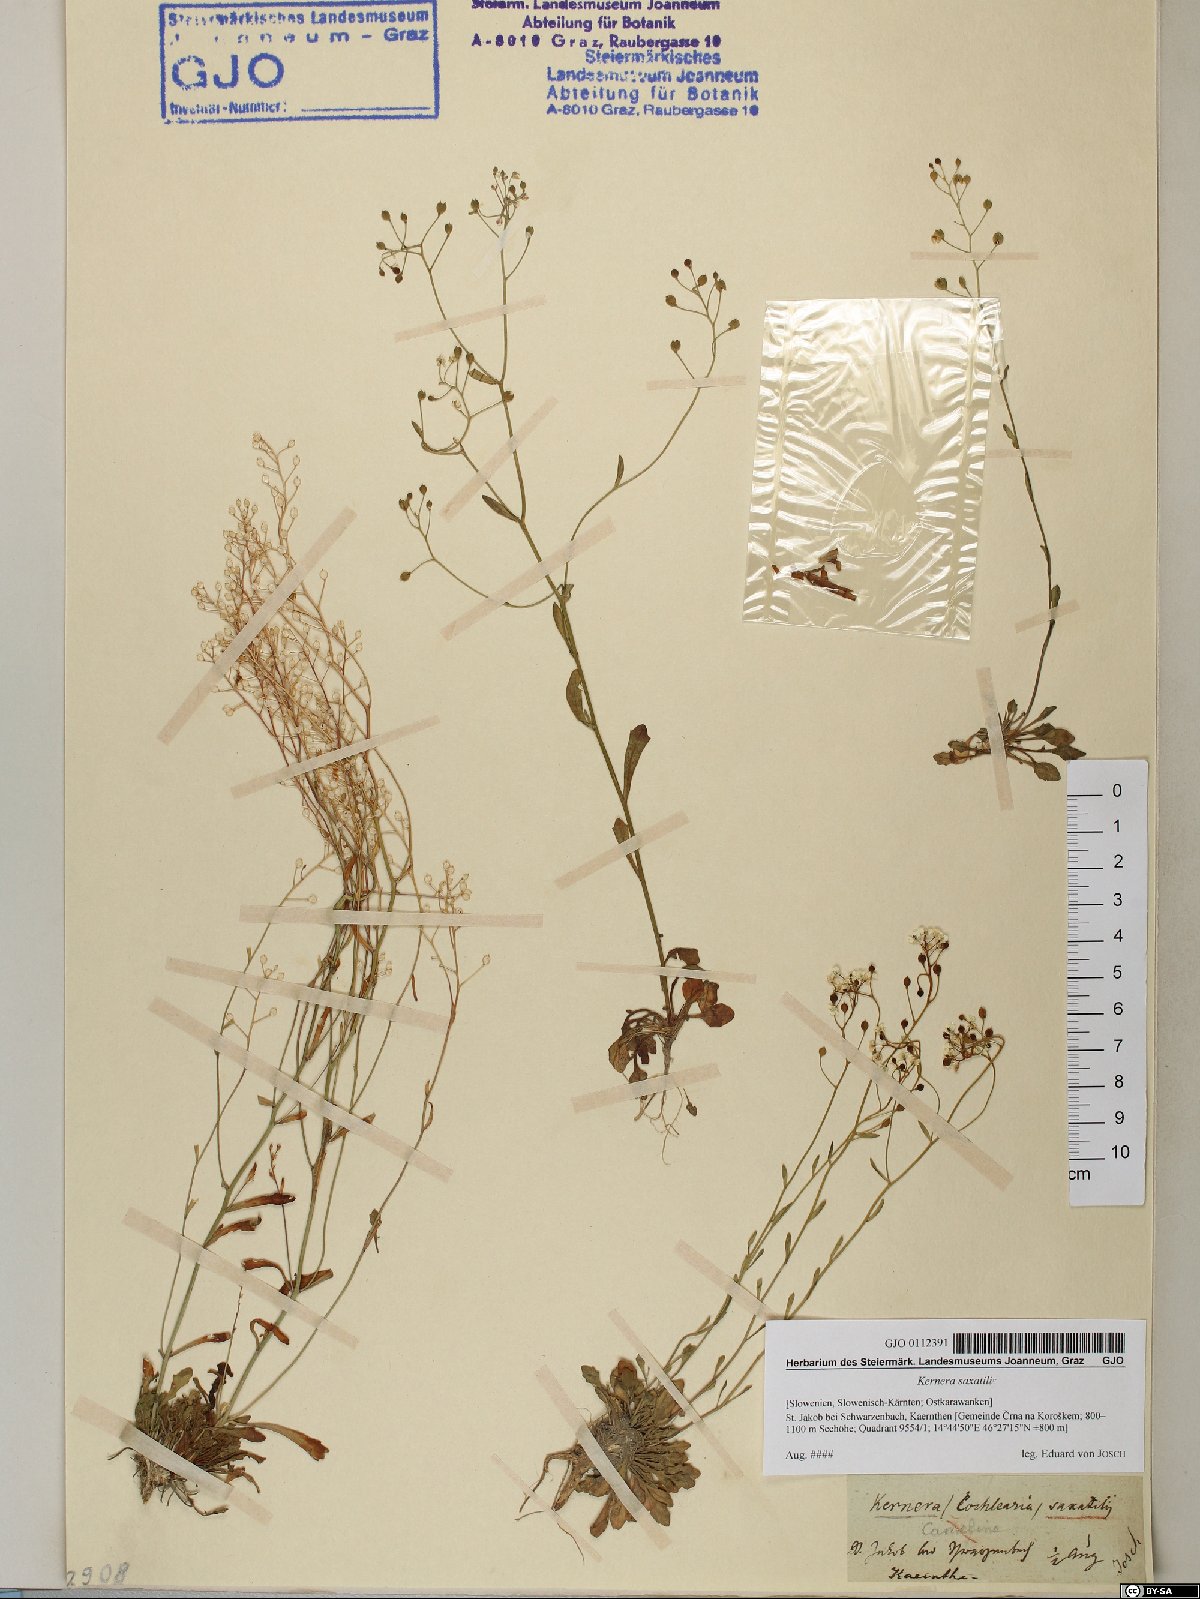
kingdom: Plantae
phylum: Tracheophyta
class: Magnoliopsida
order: Brassicales
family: Brassicaceae
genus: Kernera
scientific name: Kernera saxatilis
